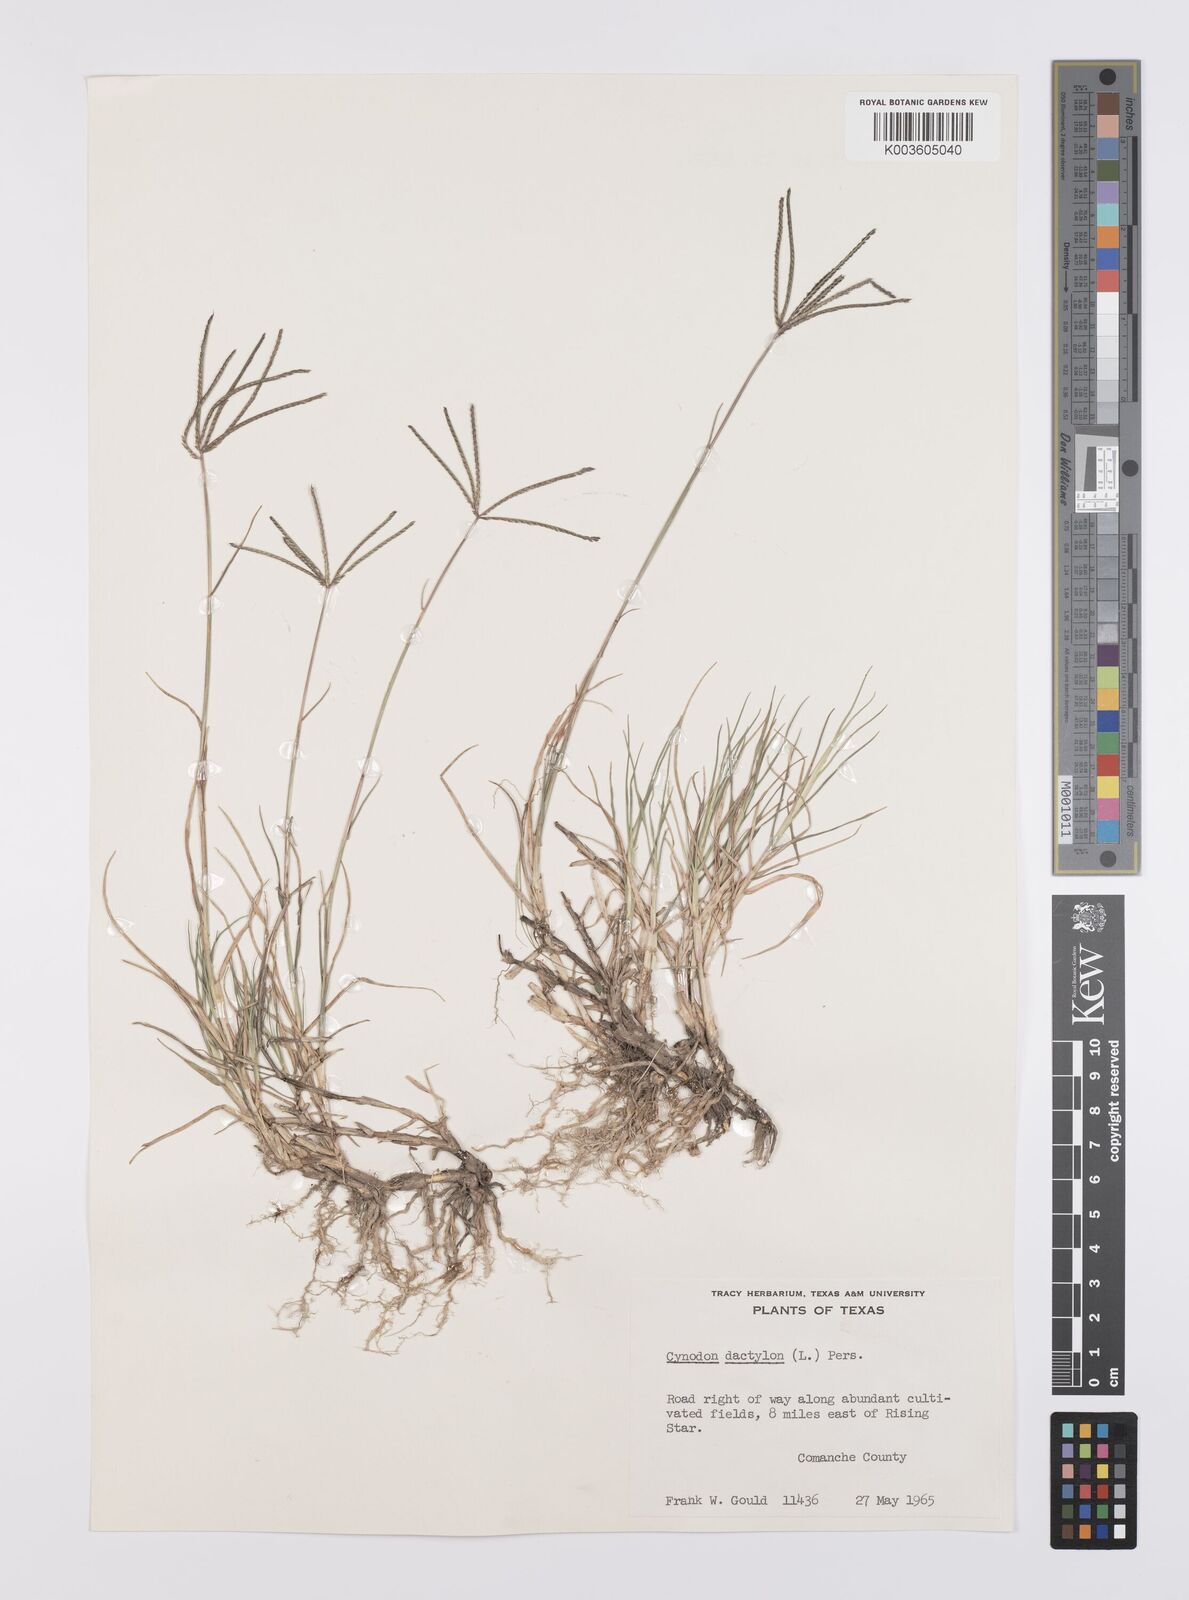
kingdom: Plantae
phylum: Tracheophyta
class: Liliopsida
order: Poales
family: Poaceae
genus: Cynodon
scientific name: Cynodon dactylon
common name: Bermuda grass
